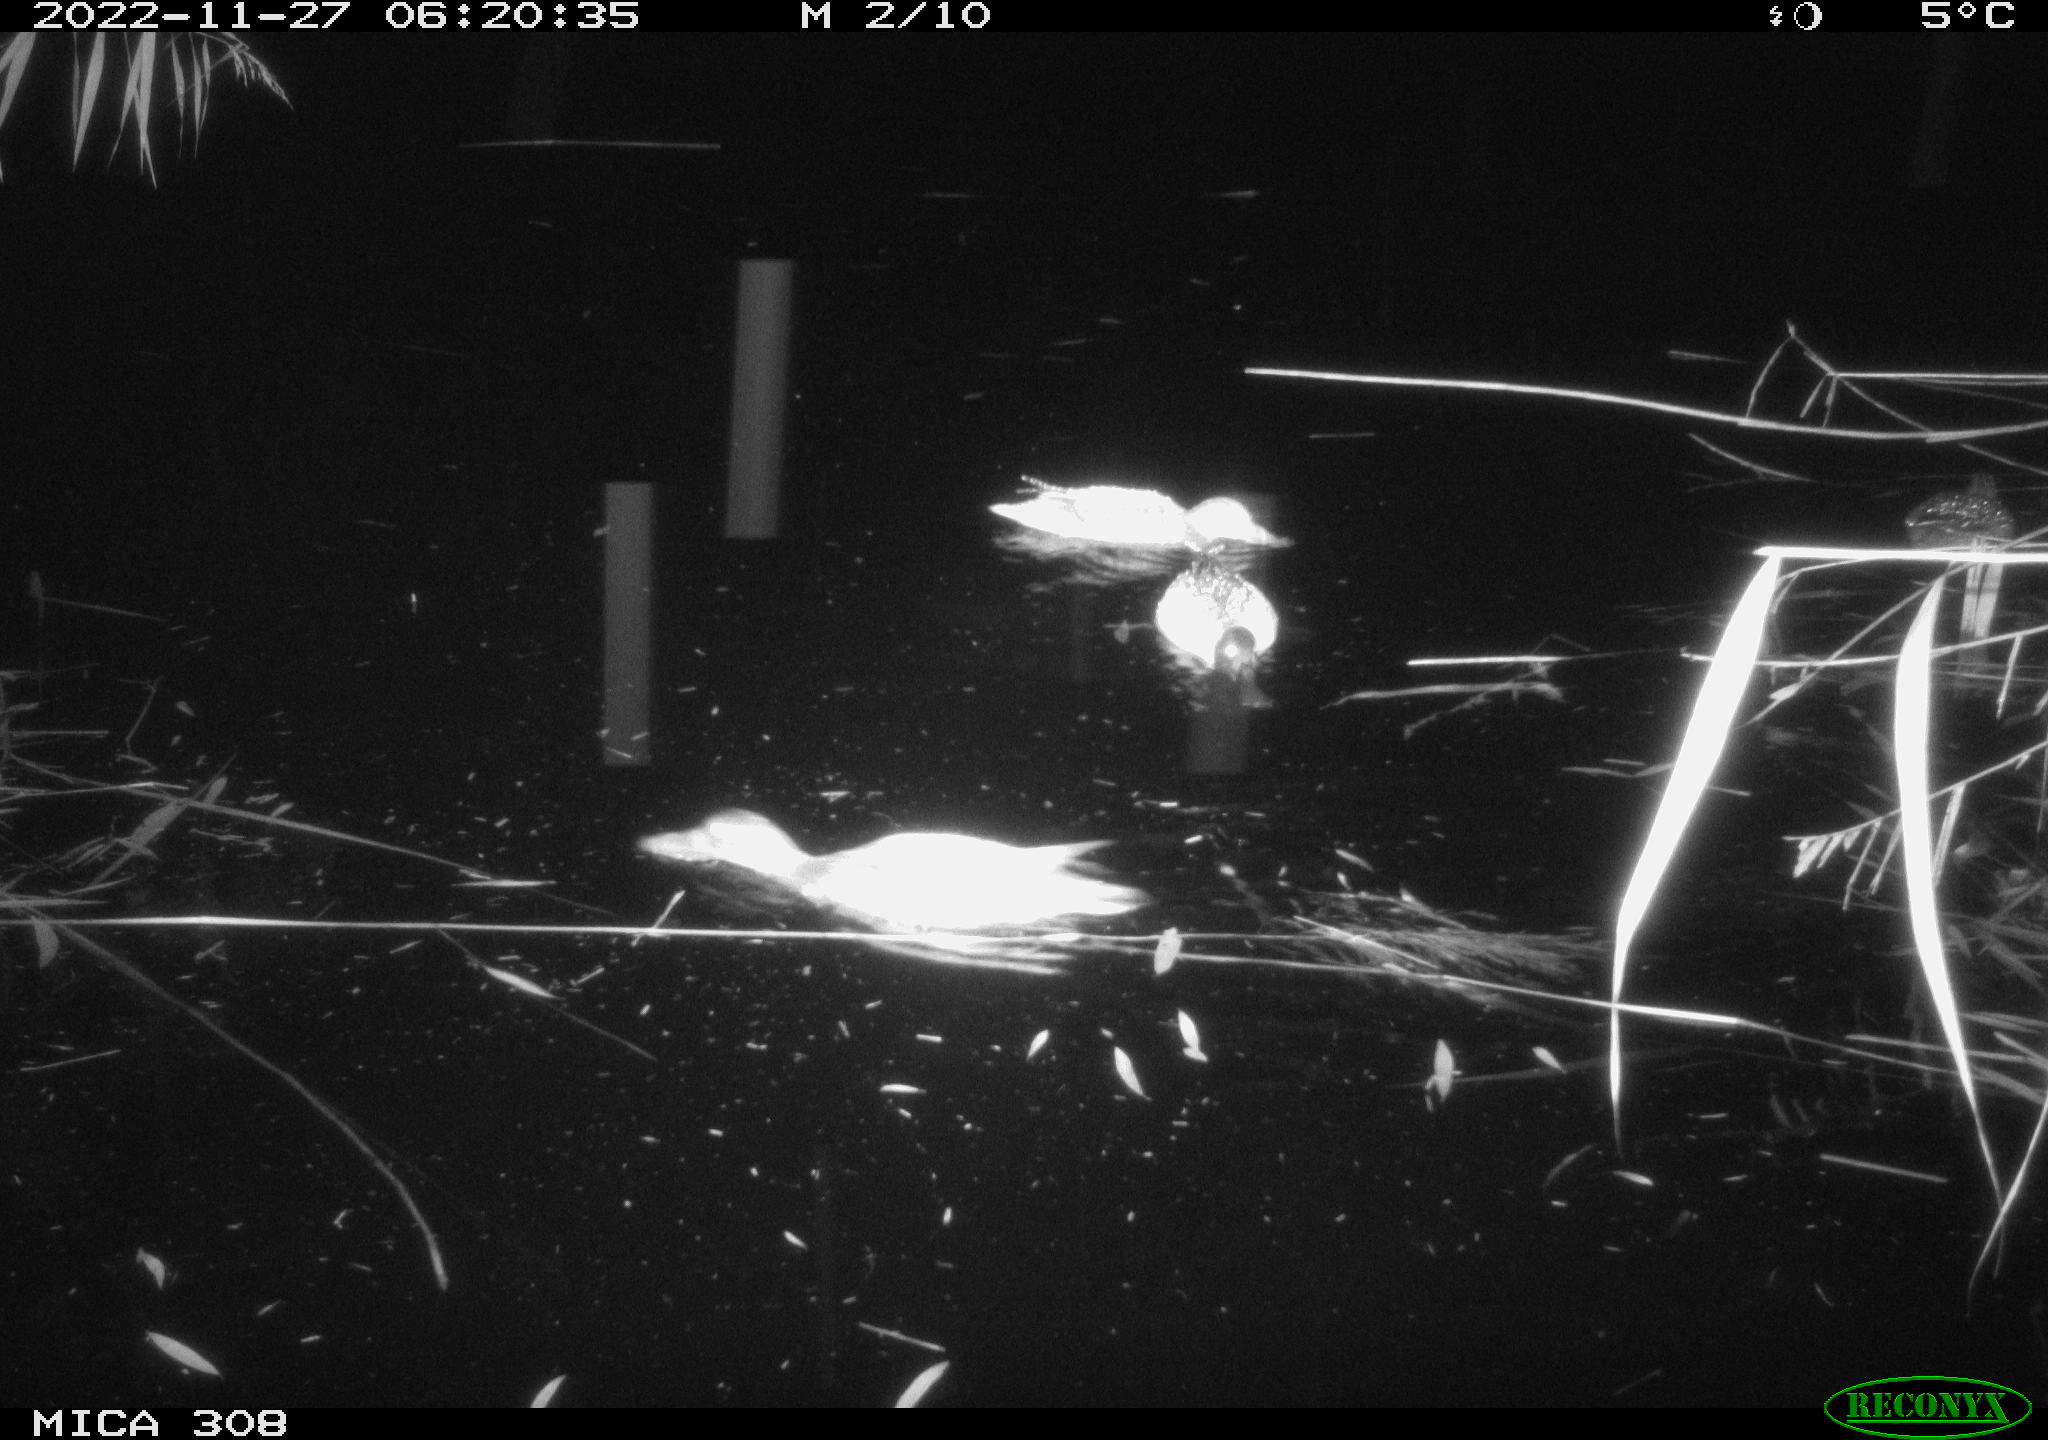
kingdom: Animalia
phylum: Chordata
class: Aves
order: Anseriformes
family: Anatidae
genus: Anas
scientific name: Anas
